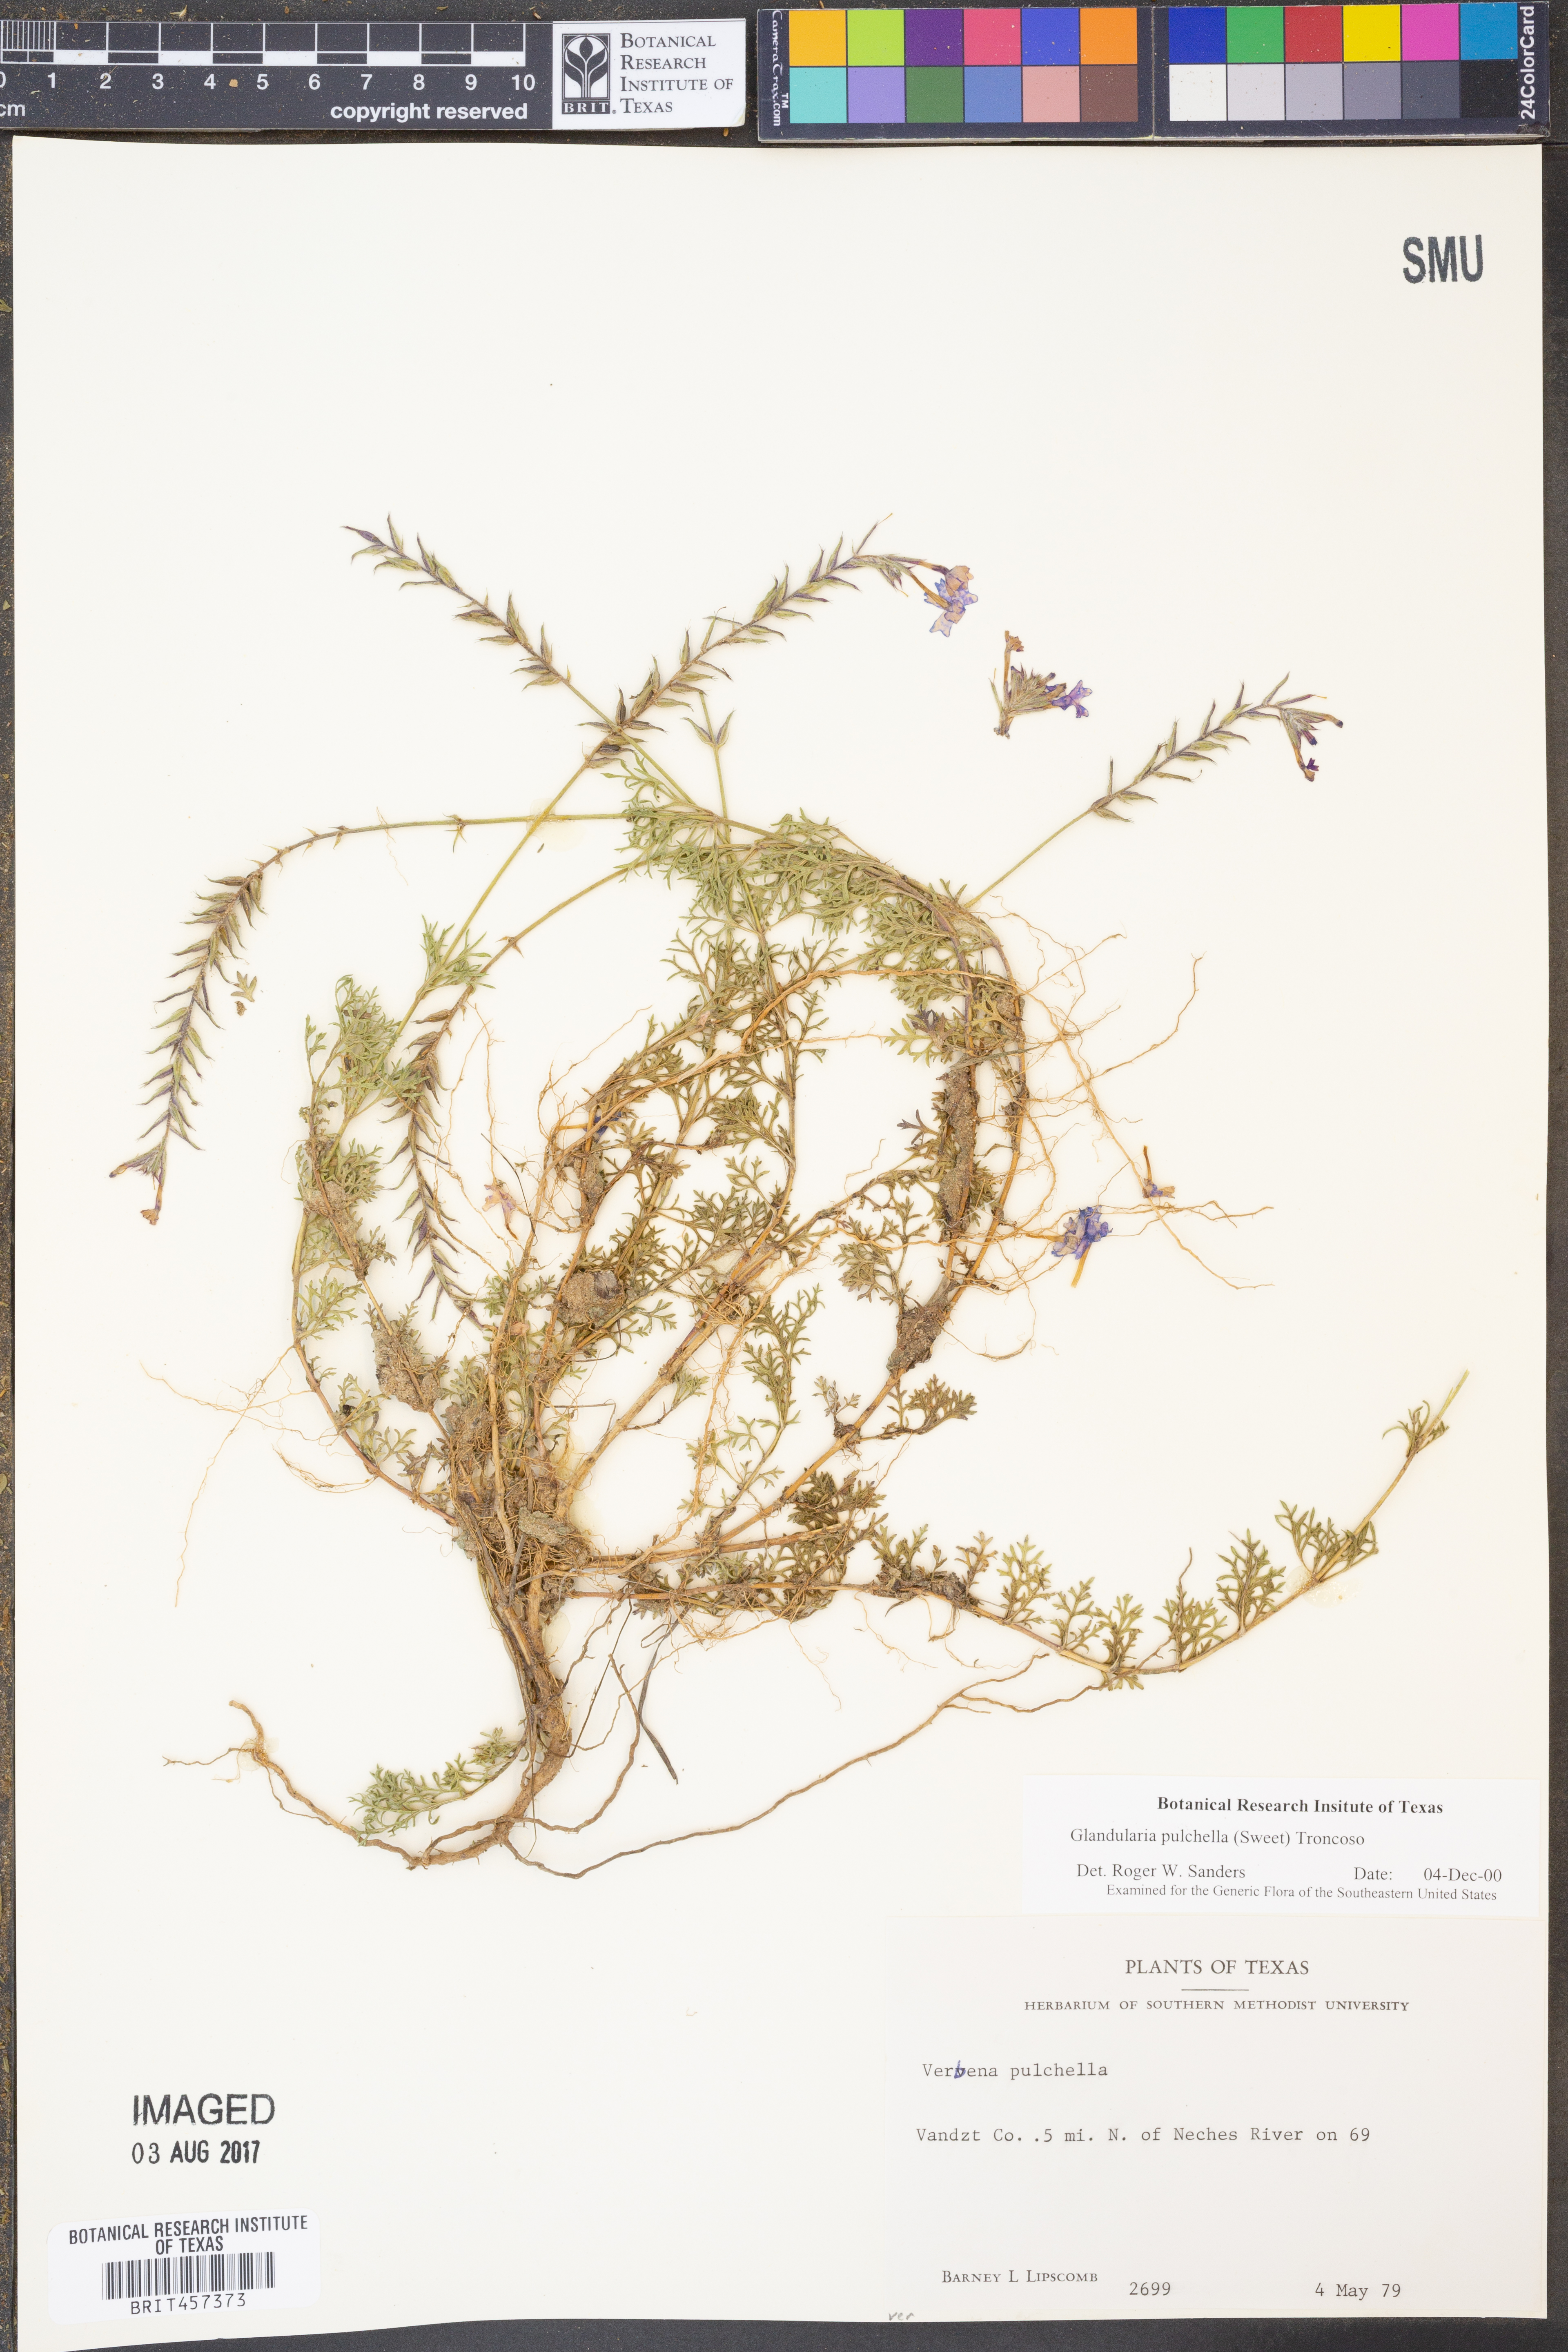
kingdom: Plantae
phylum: Tracheophyta
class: Magnoliopsida
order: Lamiales
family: Verbenaceae
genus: Verbena
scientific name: Verbena tenera
